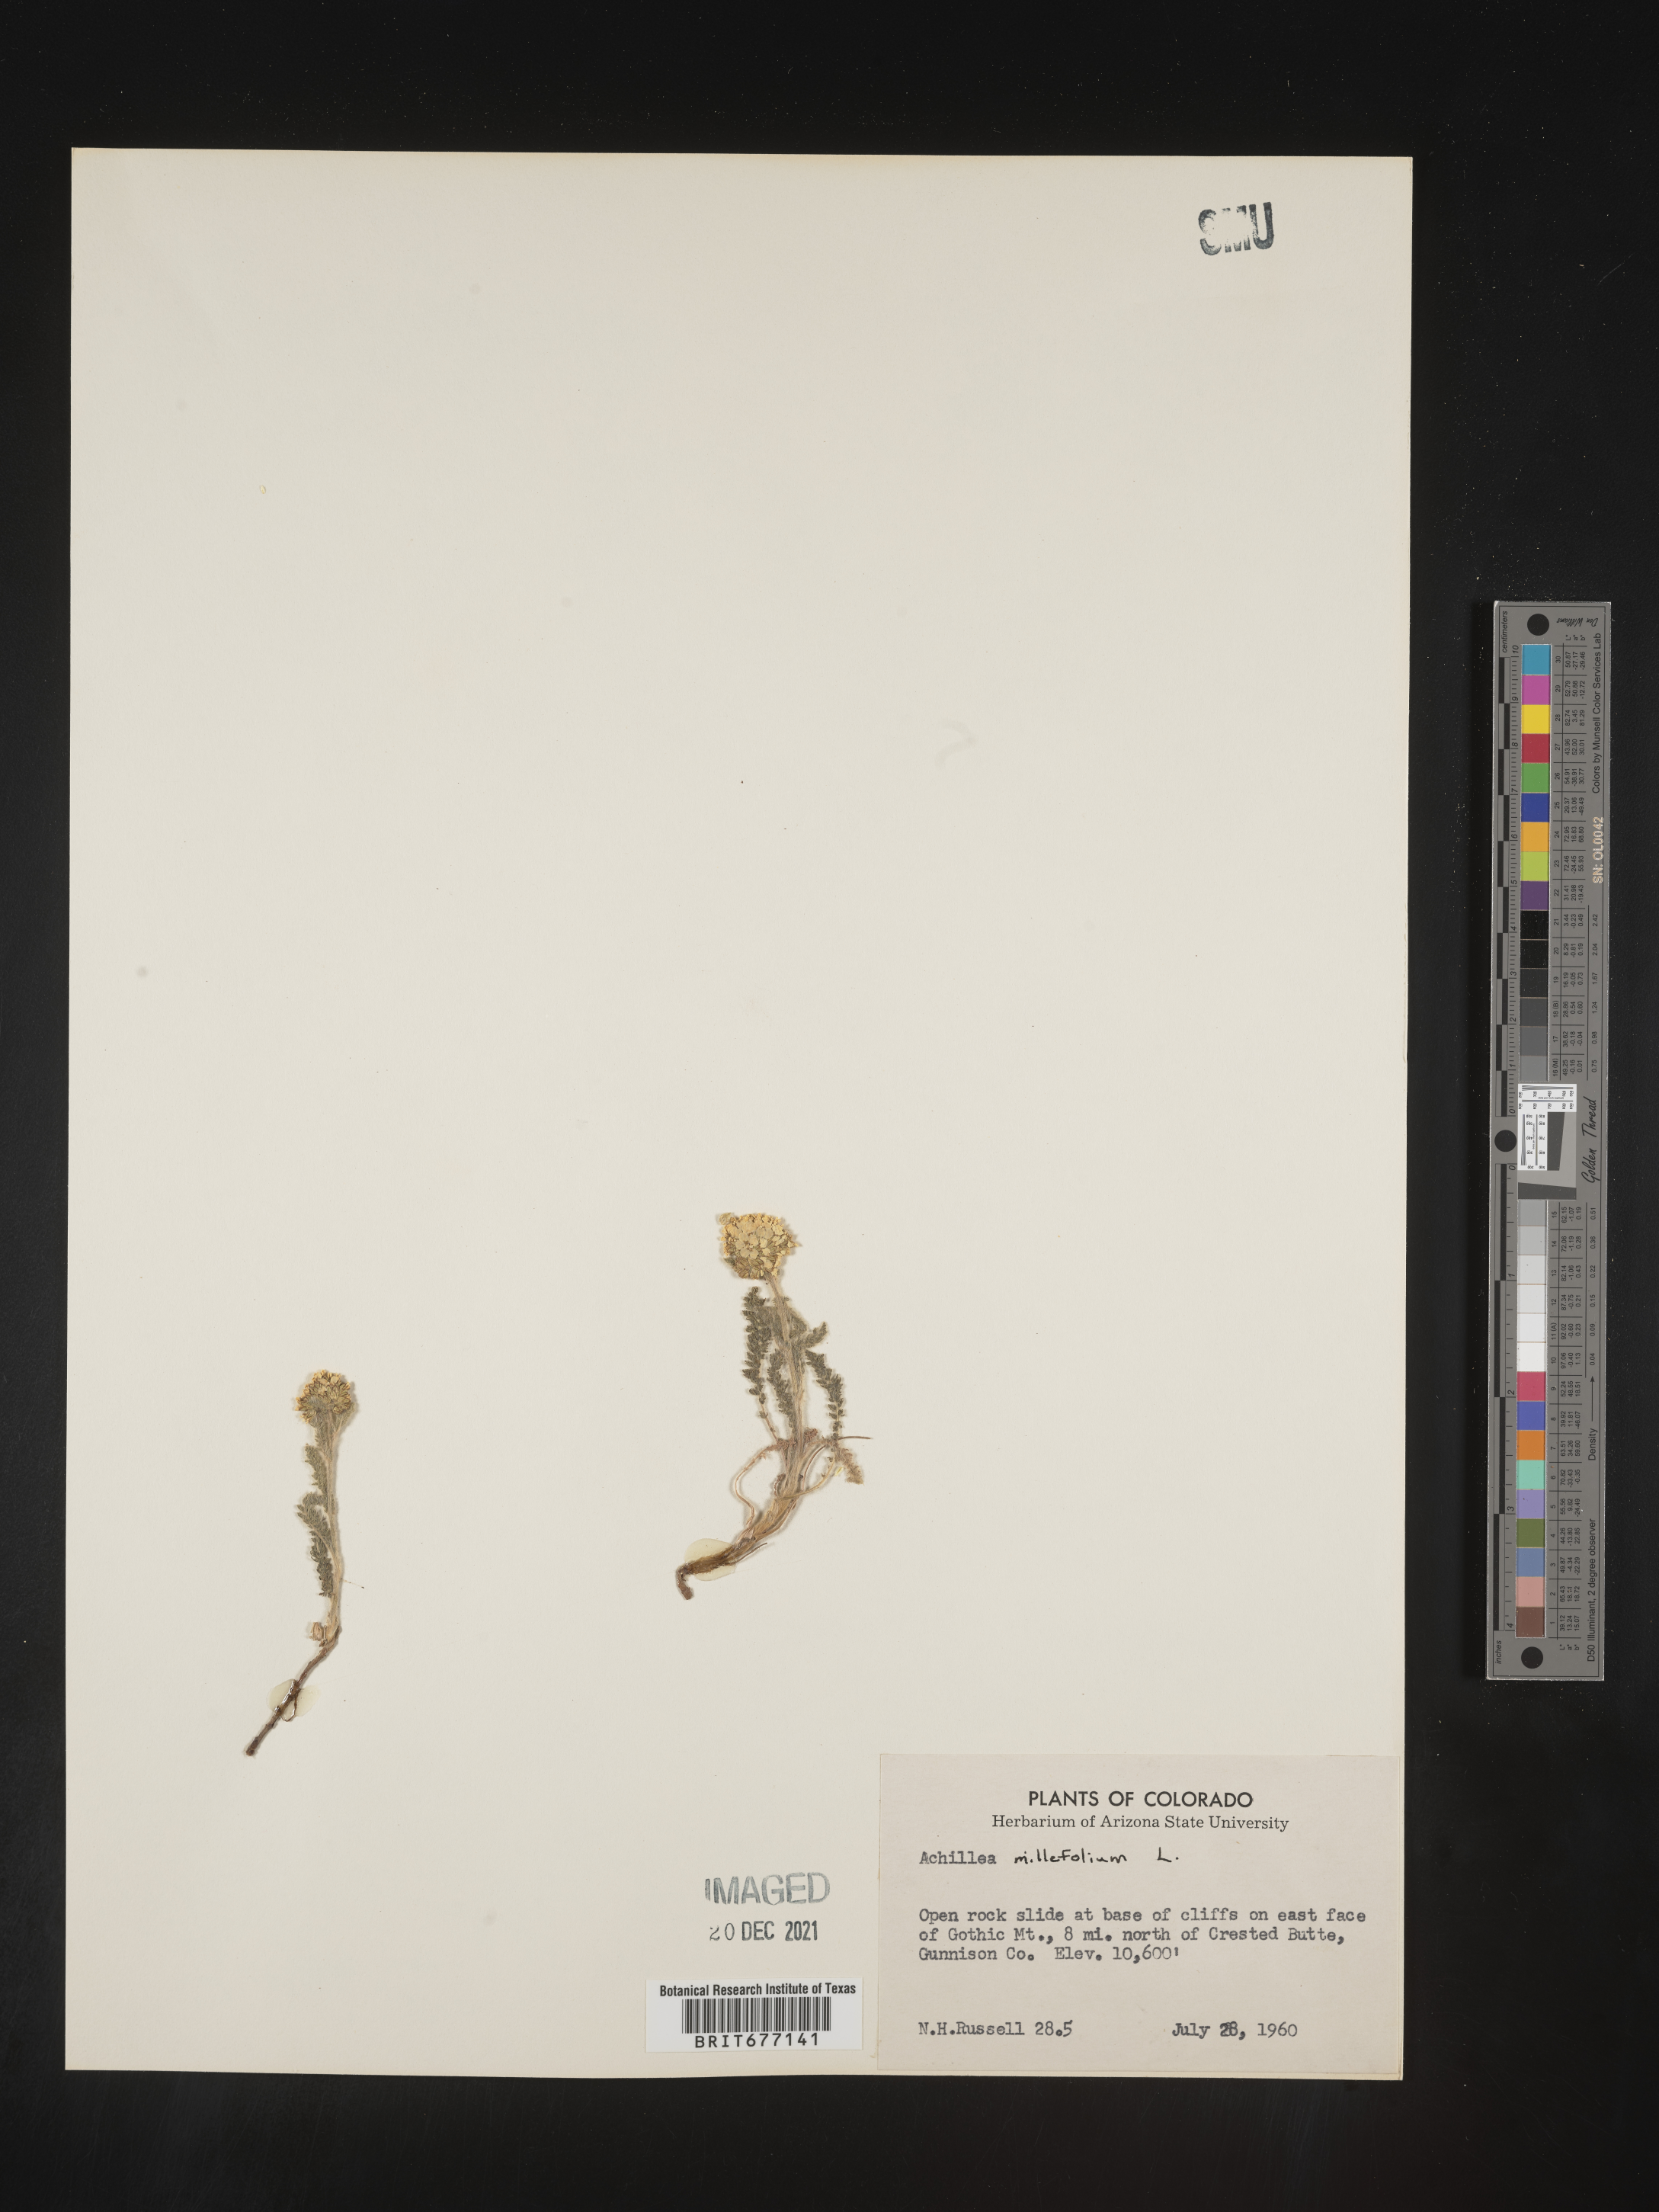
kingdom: Plantae
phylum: Tracheophyta
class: Magnoliopsida
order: Asterales
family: Asteraceae
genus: Achillea
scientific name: Achillea millefolium
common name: Yarrow
